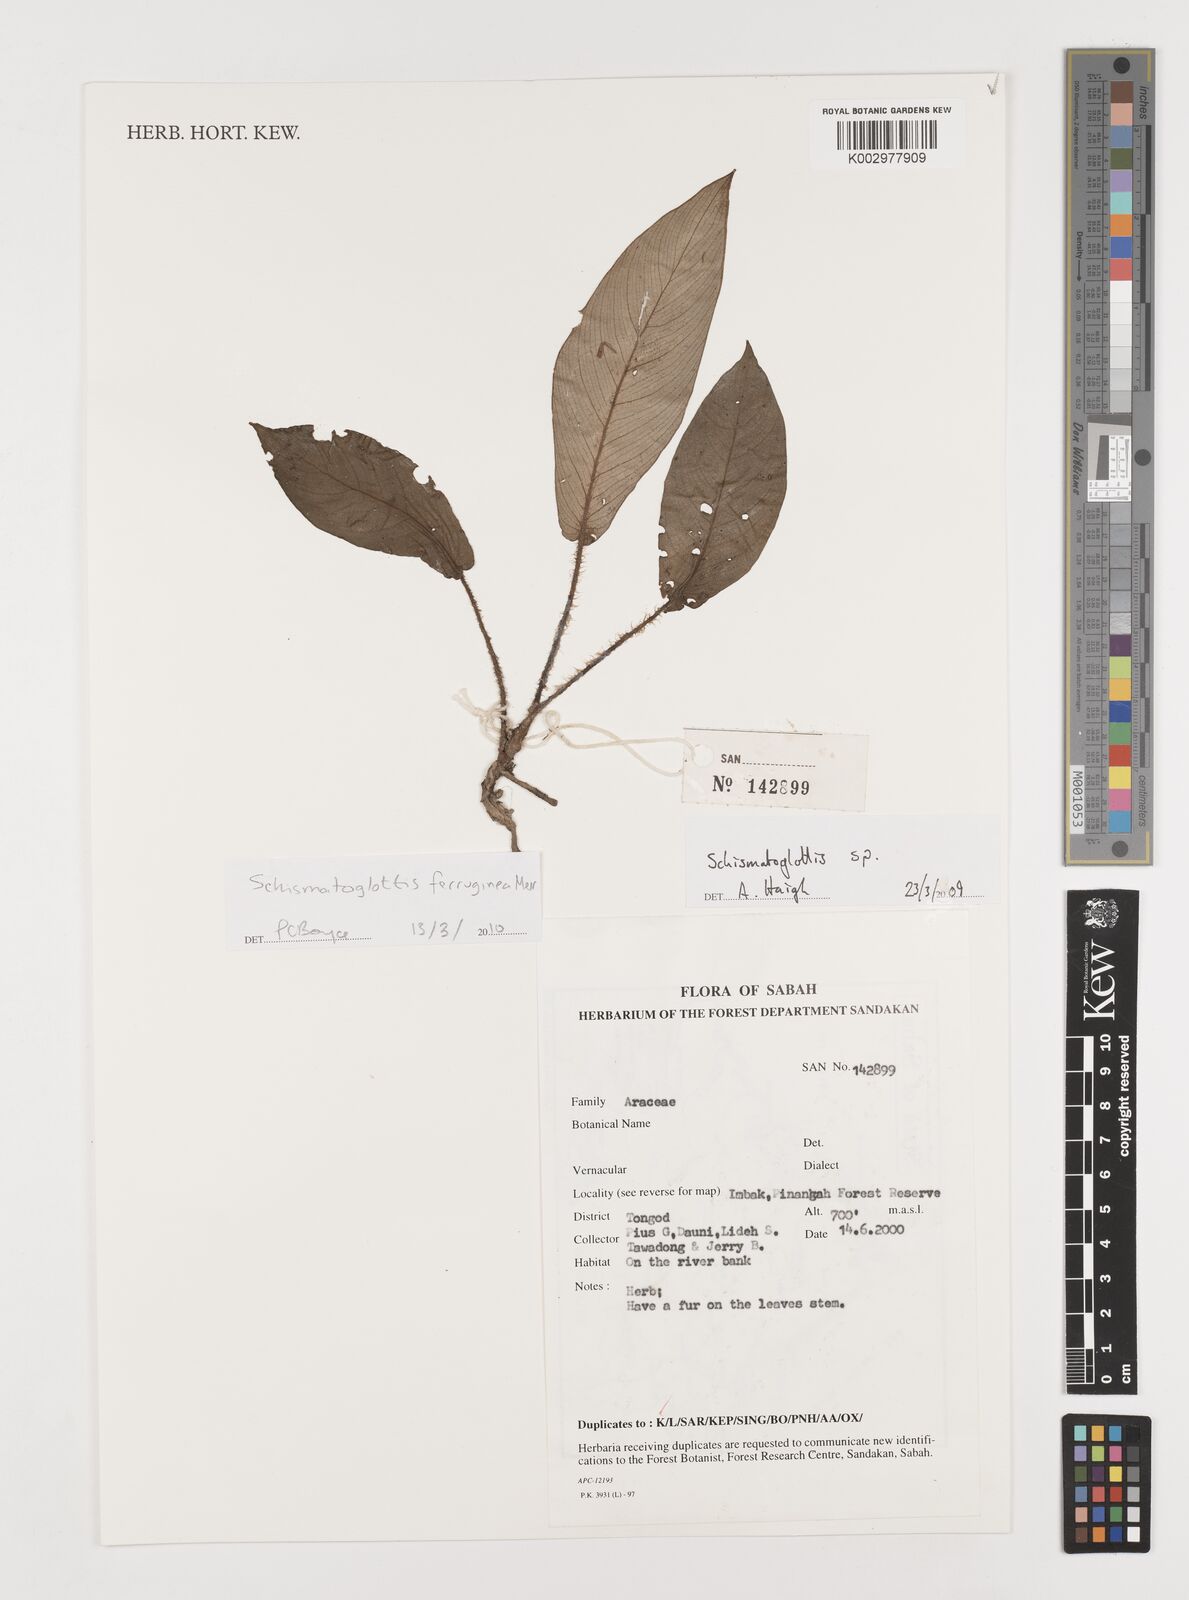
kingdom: Plantae
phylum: Tracheophyta
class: Liliopsida
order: Alismatales
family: Araceae
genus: Schismatoglottis
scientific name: Schismatoglottis ferruginea
